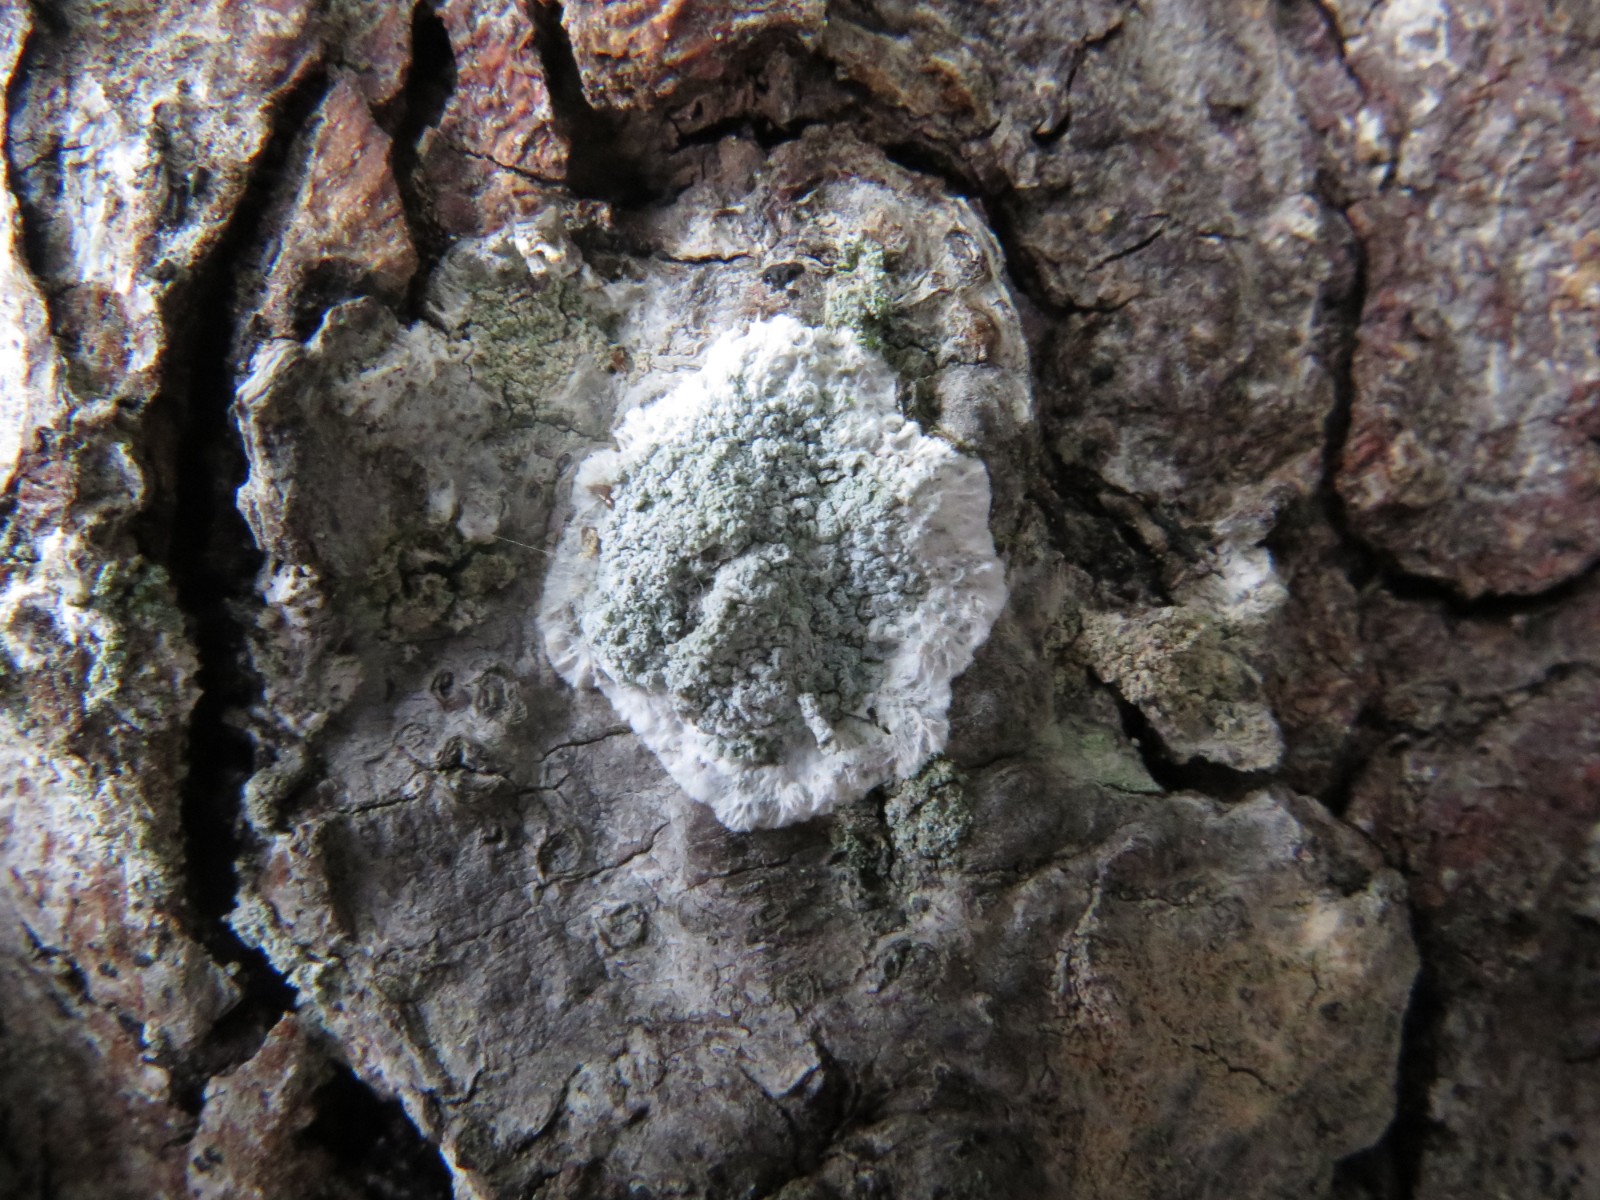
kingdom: Fungi
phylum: Ascomycota
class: Lecanoromycetes
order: Lecanorales
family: Haematommataceae
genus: Haematomma
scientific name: Haematomma ochroleucum
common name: gul trådkantlav
